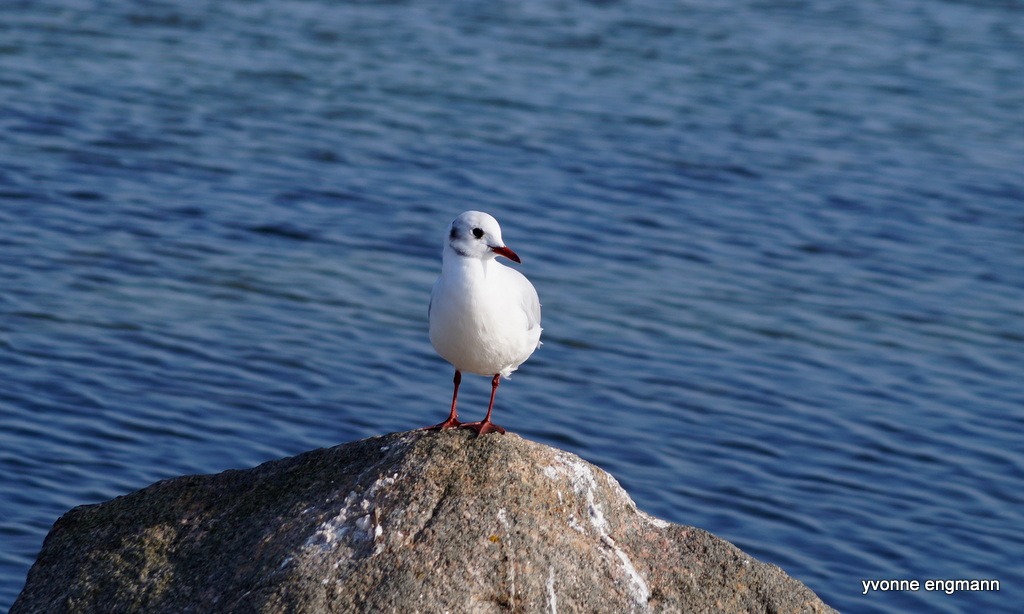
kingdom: Animalia
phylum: Chordata
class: Aves
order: Charadriiformes
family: Laridae
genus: Chroicocephalus
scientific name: Chroicocephalus ridibundus
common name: Hættemåge
